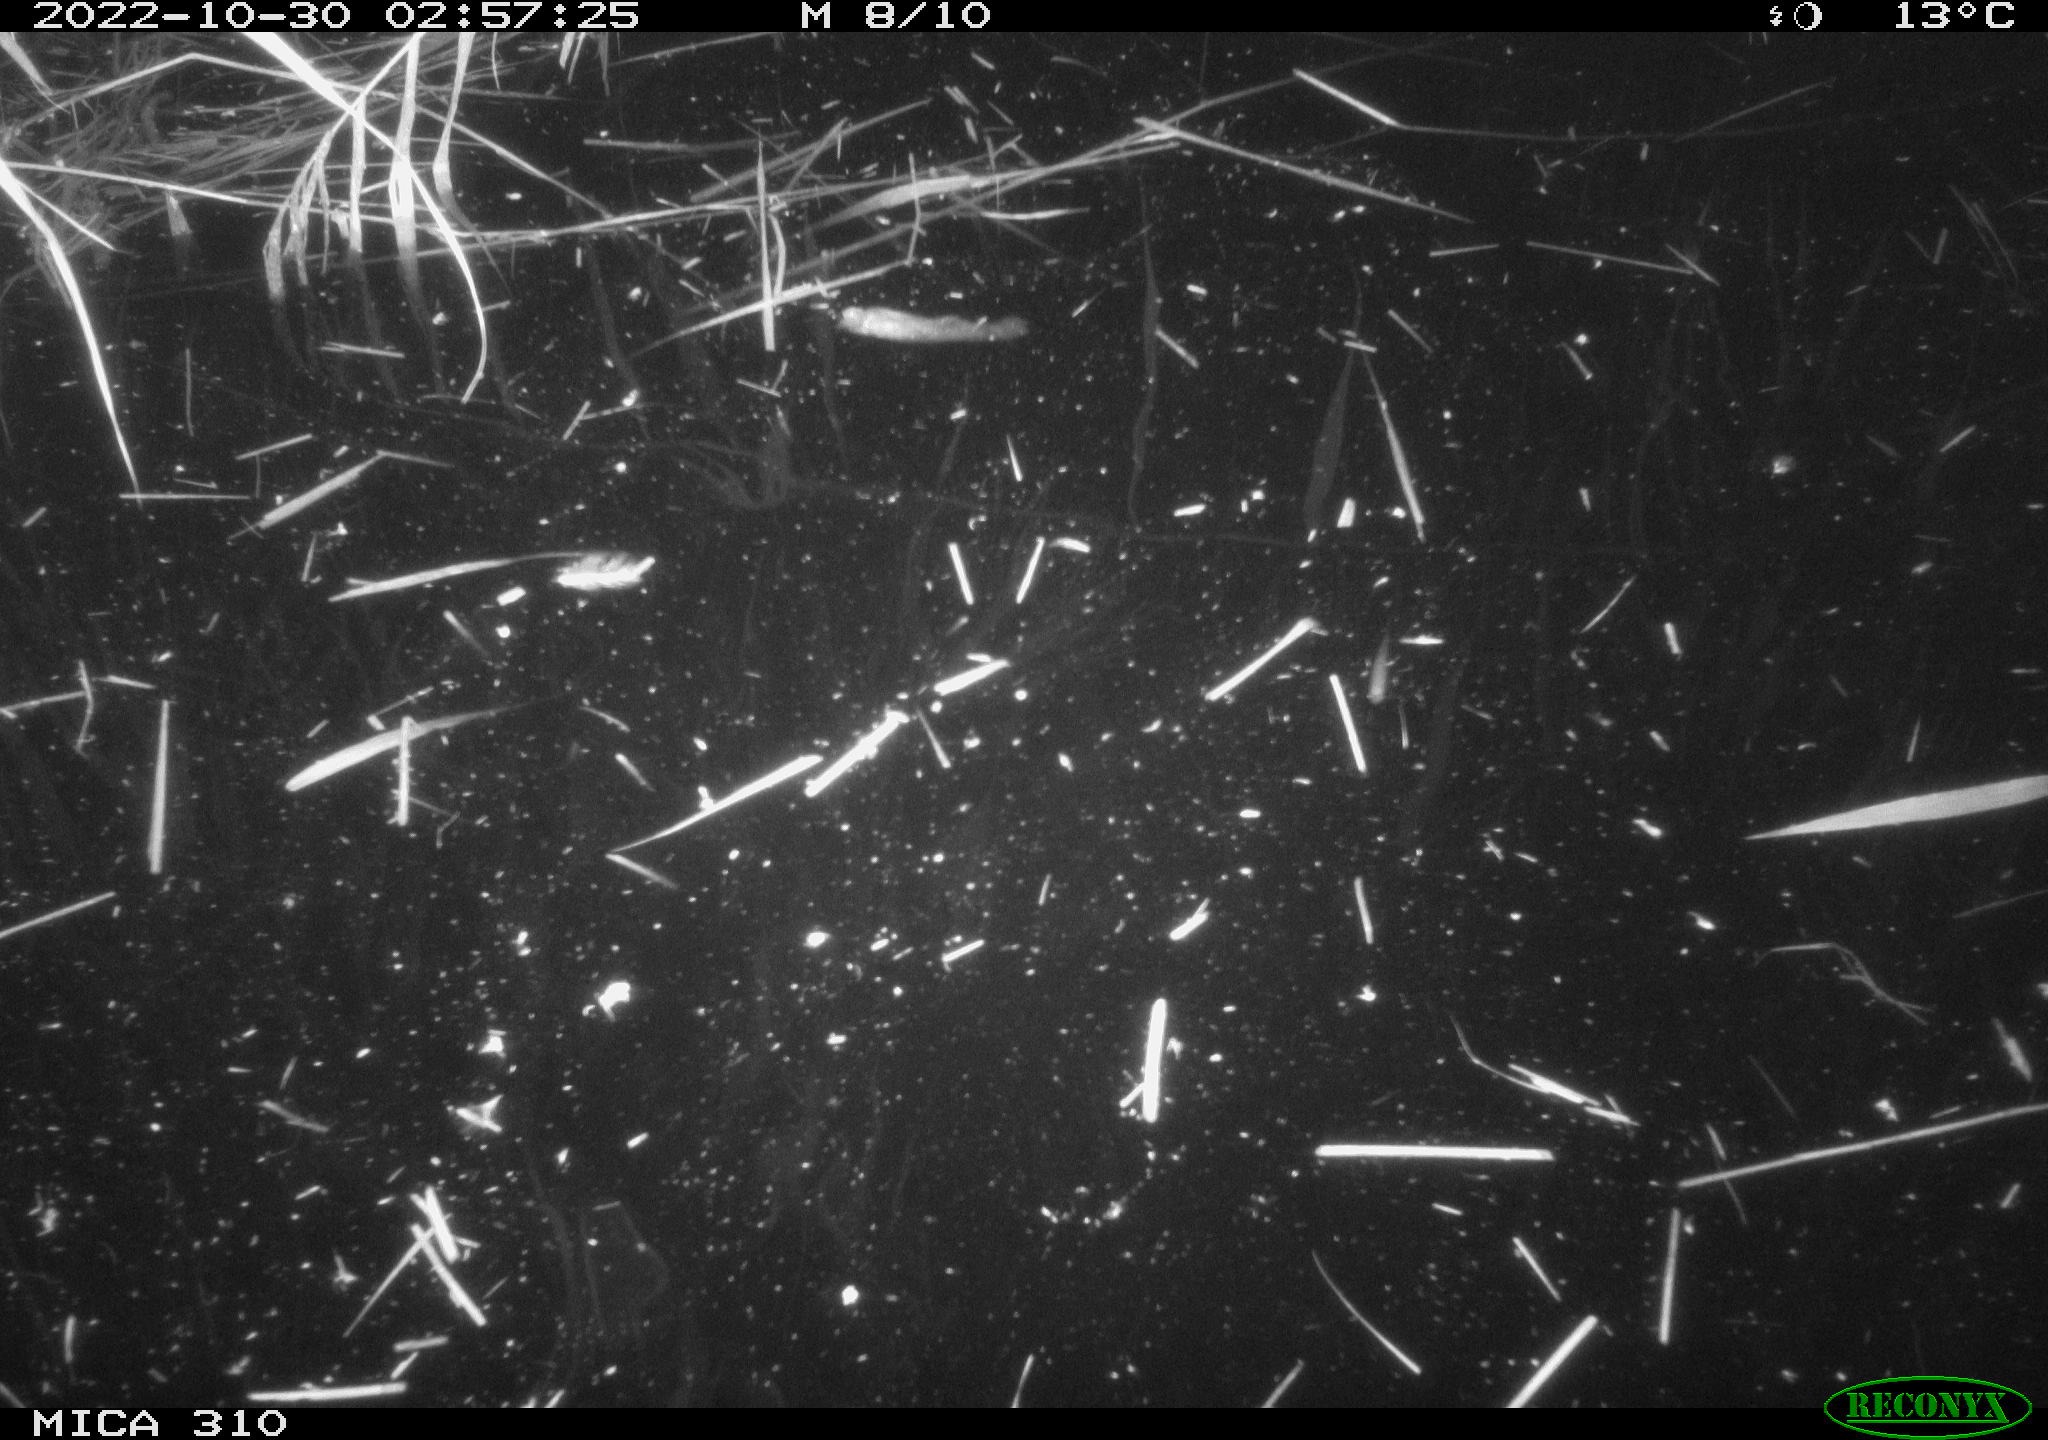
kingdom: Animalia
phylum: Chordata
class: Mammalia
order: Rodentia
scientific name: Rodentia
